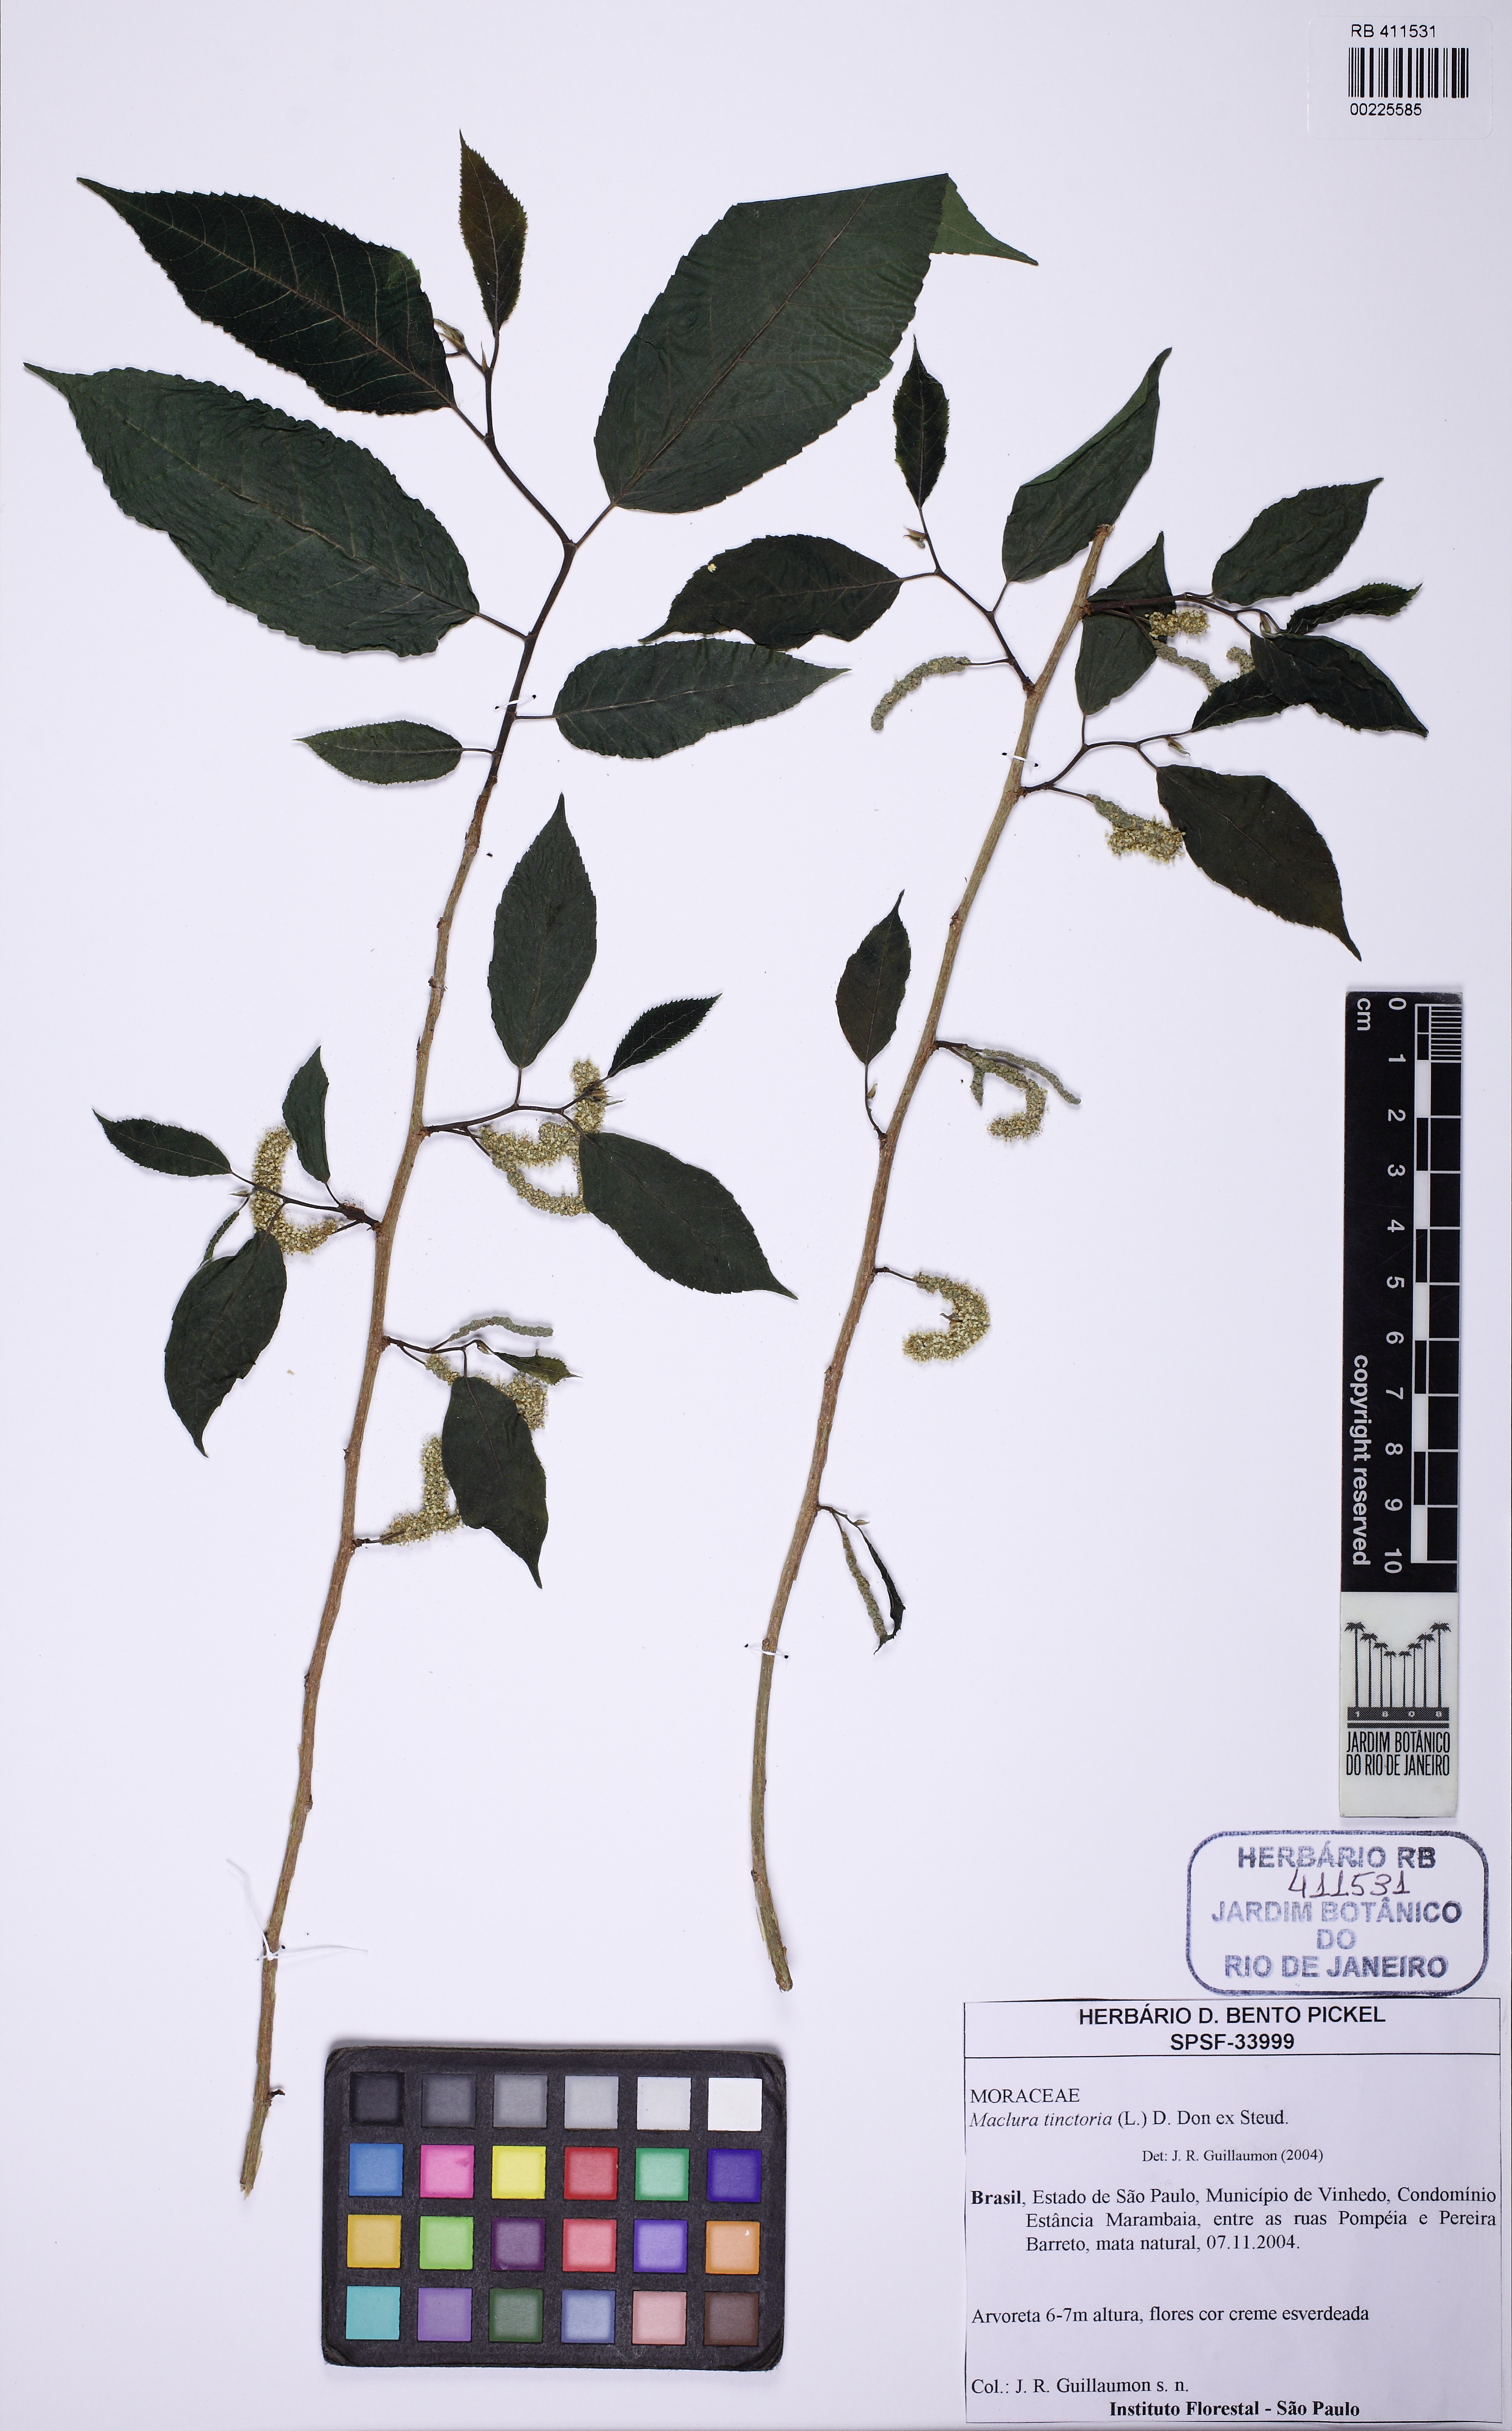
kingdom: Plantae
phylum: Tracheophyta
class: Magnoliopsida
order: Rosales
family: Moraceae
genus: Maclura
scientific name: Maclura tinctoria
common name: Old fustic
